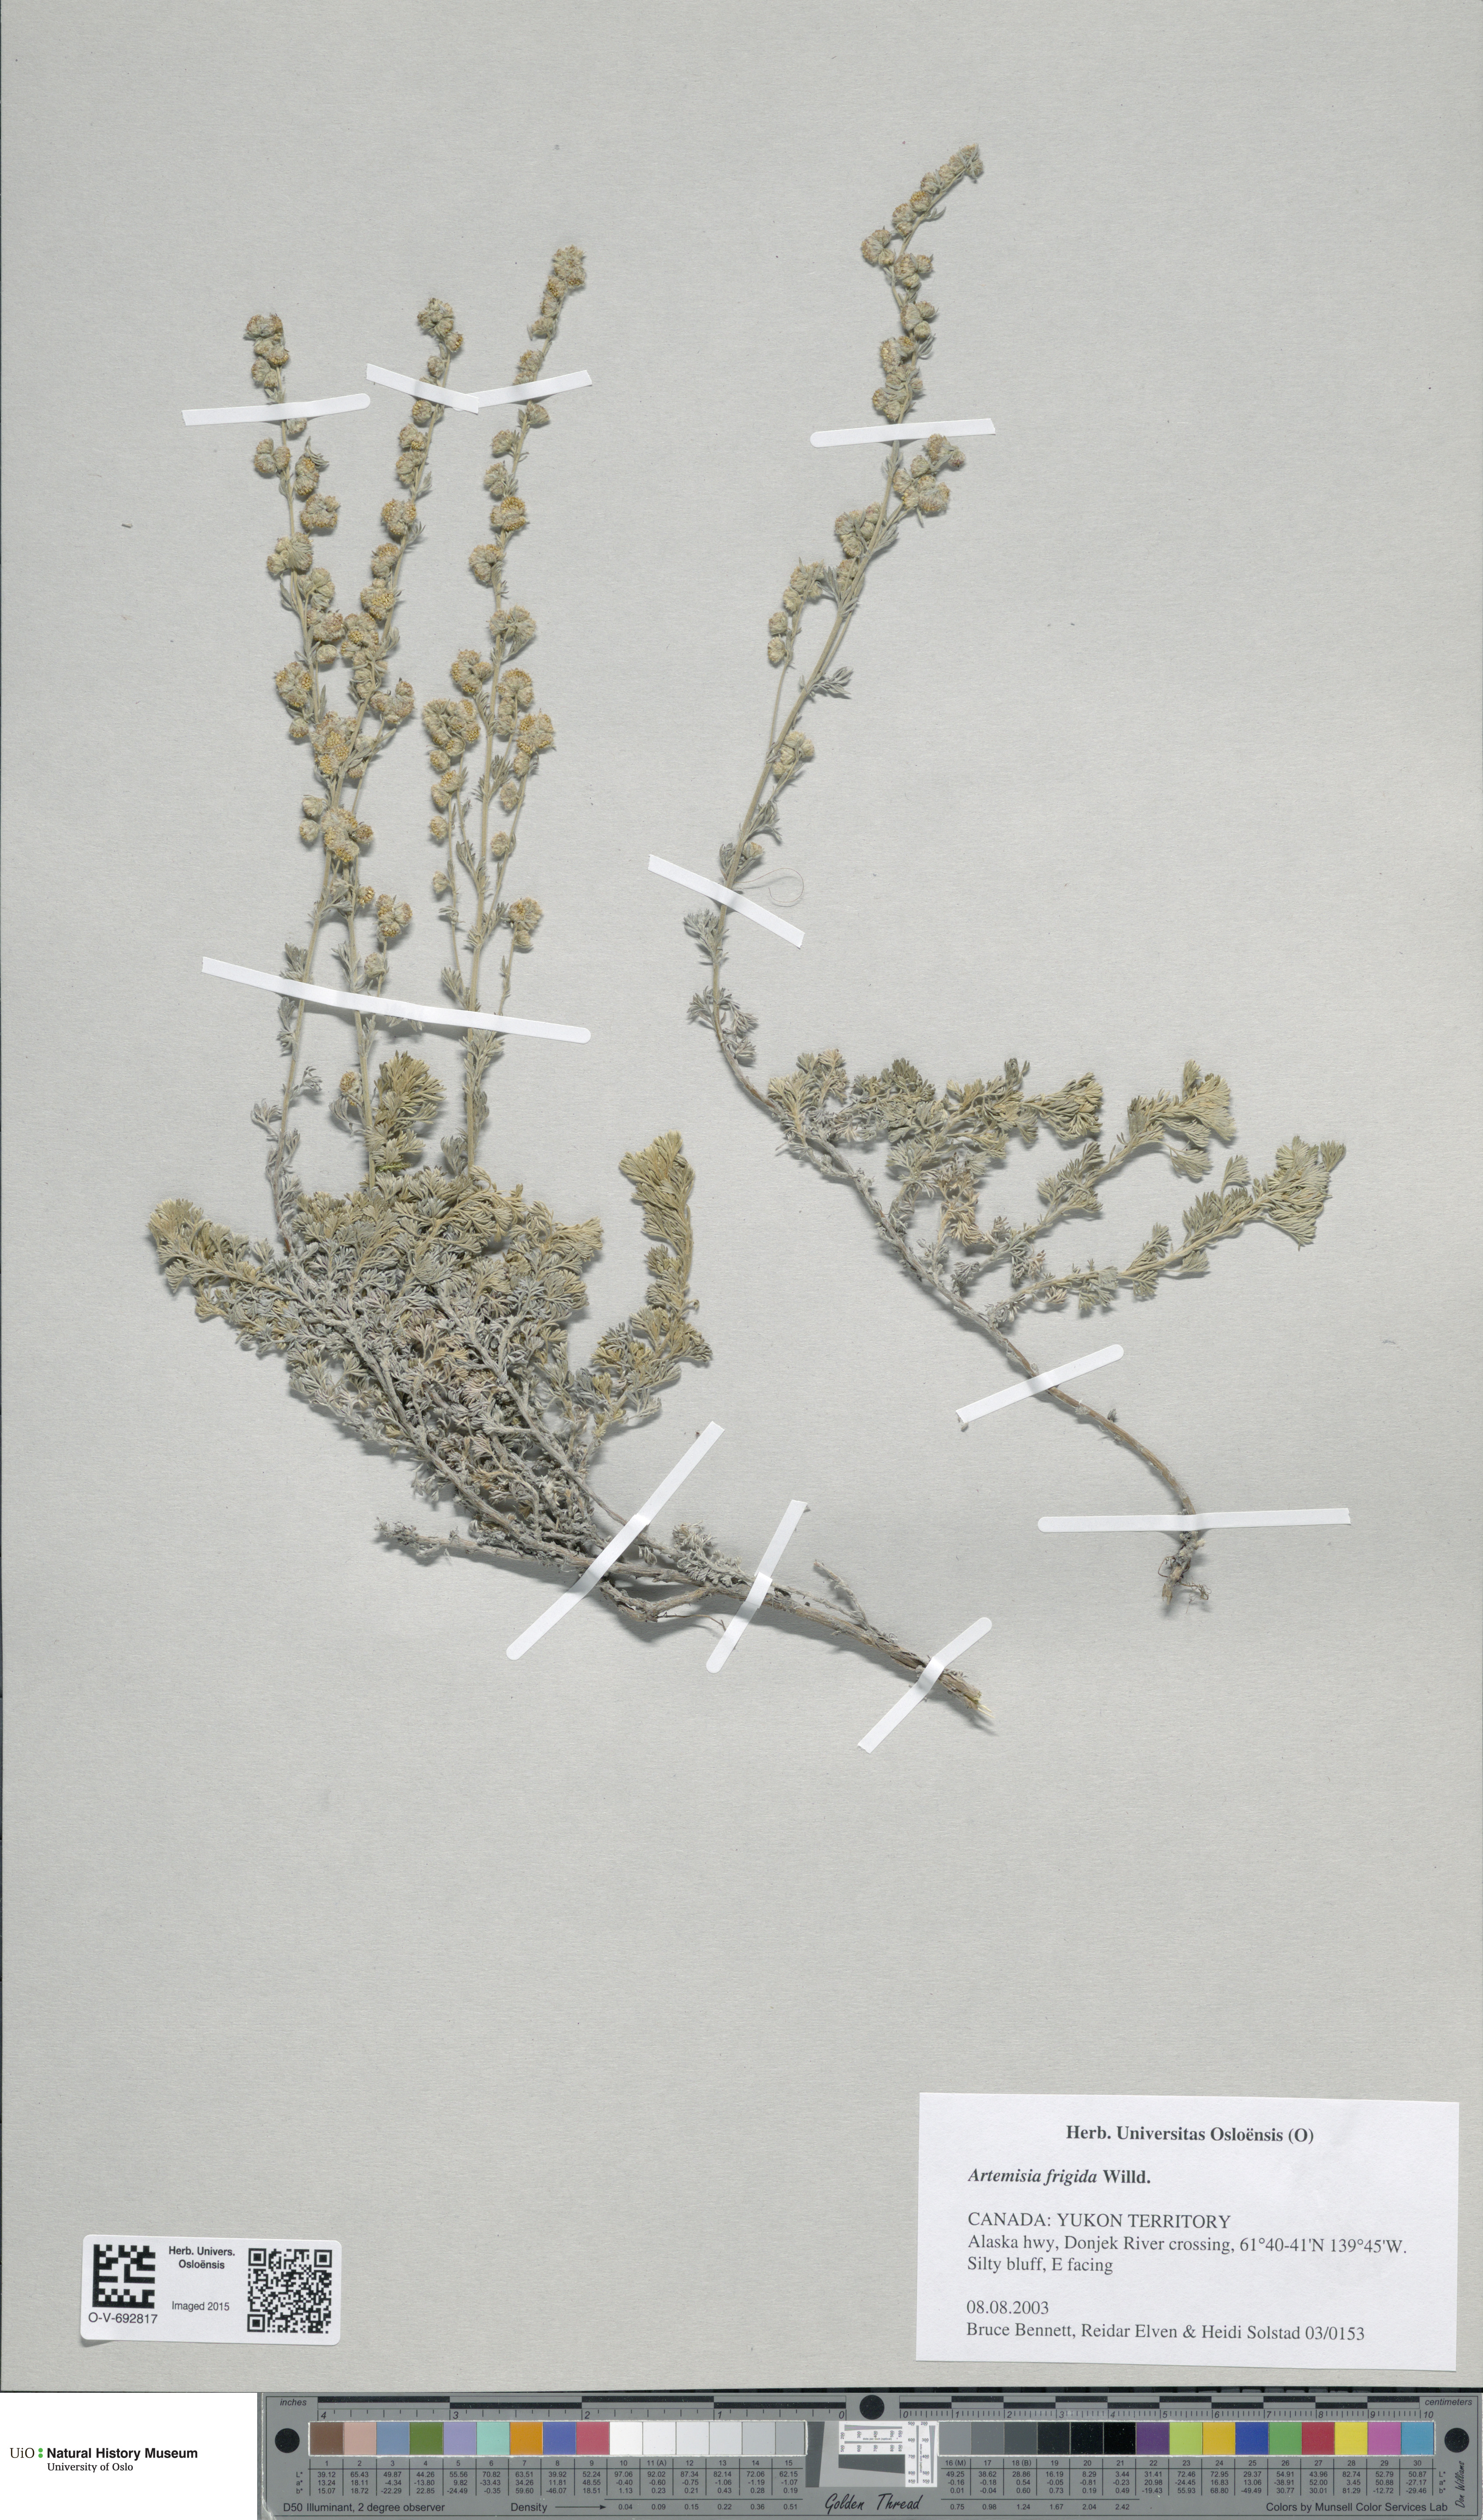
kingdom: Plantae
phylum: Tracheophyta
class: Magnoliopsida
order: Asterales
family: Asteraceae
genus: Artemisia
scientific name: Artemisia frigida
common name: Prairie sagewort
